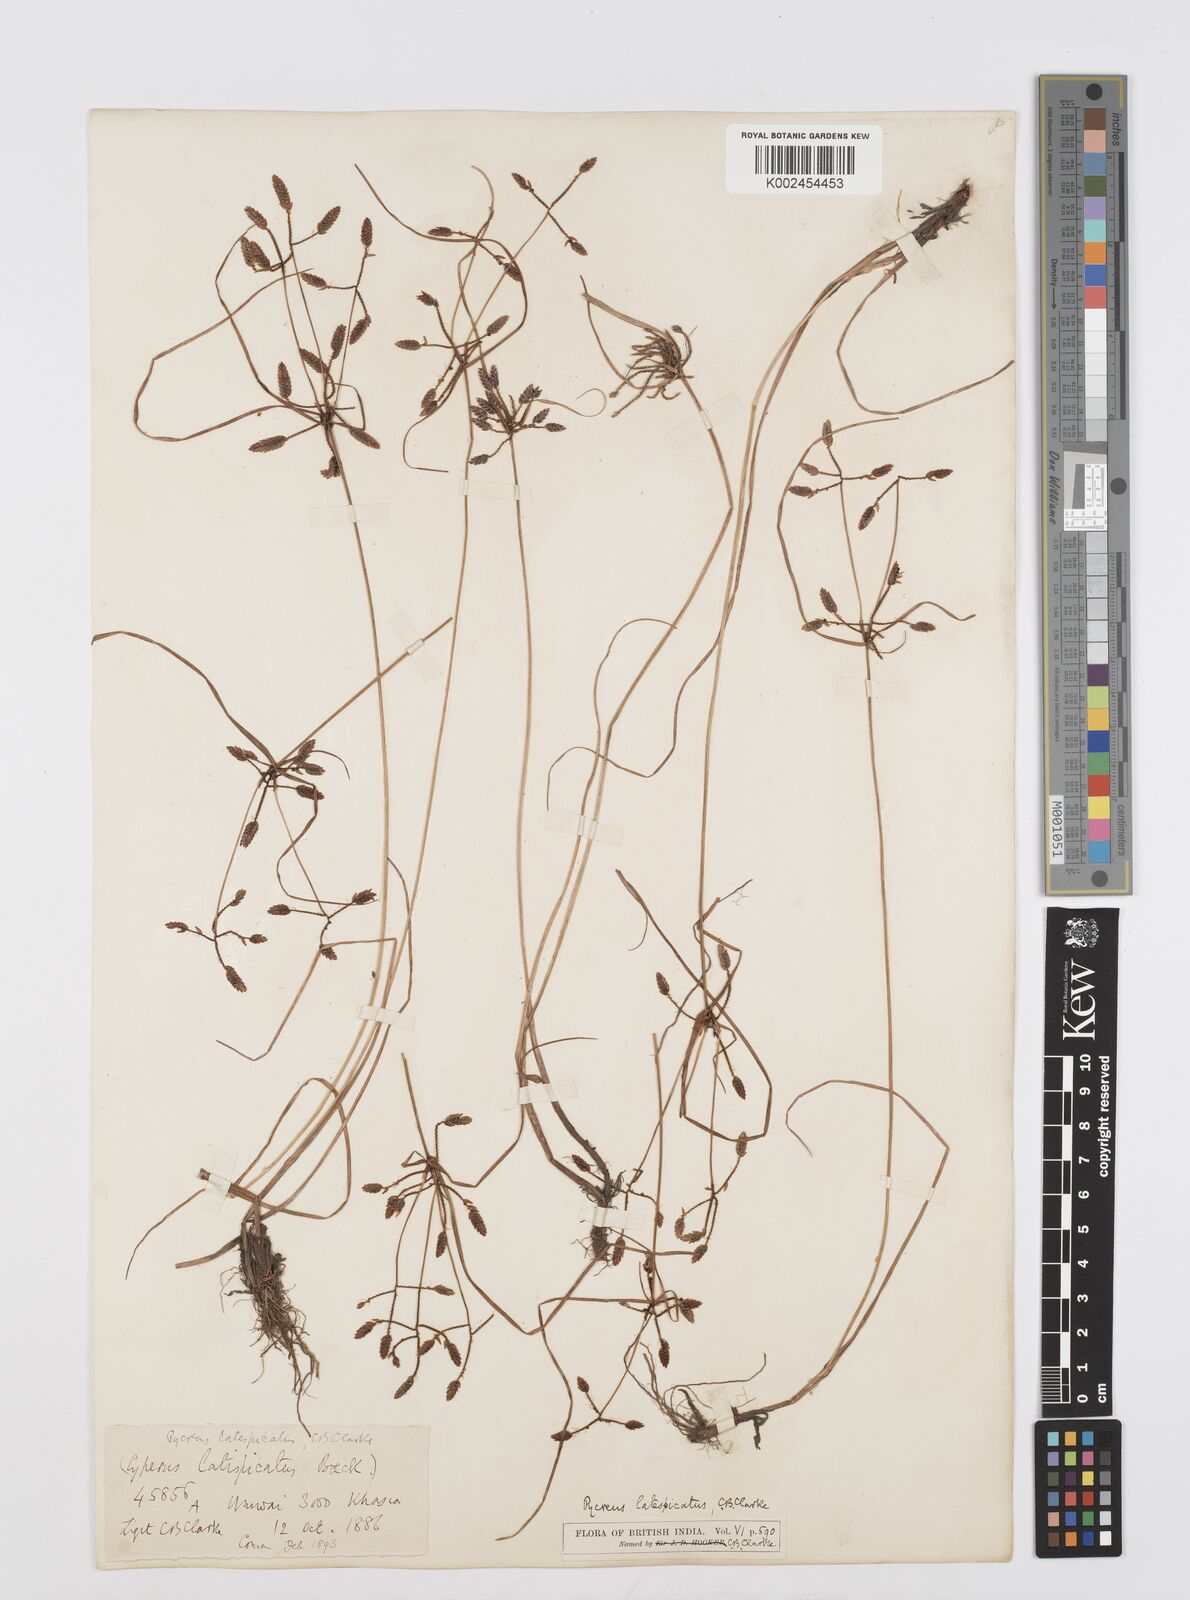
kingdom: Plantae
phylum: Tracheophyta
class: Liliopsida
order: Poales
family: Cyperaceae
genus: Cyperus
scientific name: Cyperus diaphanus
